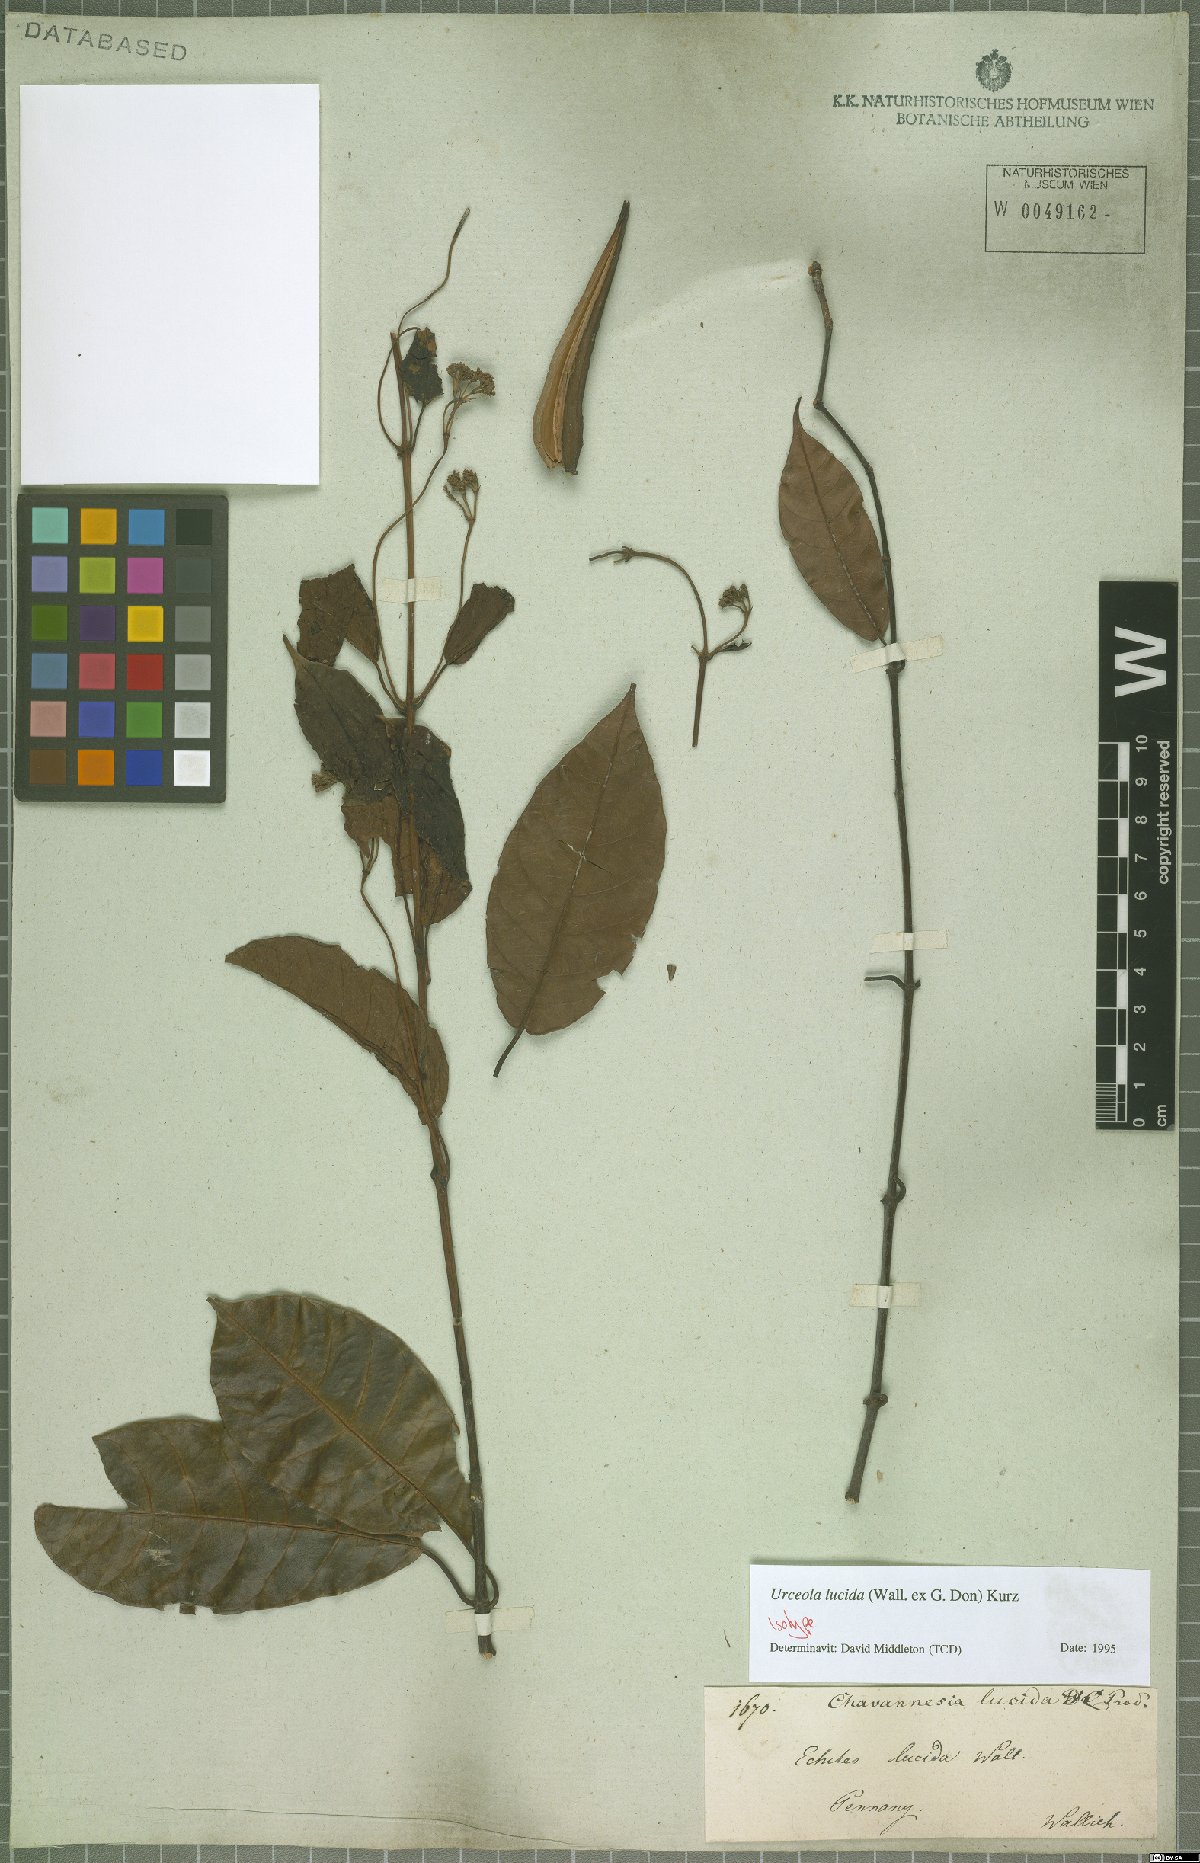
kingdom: Plantae
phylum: Tracheophyta
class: Magnoliopsida
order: Gentianales
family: Apocynaceae
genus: Urceola
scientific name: Urceola lucida
